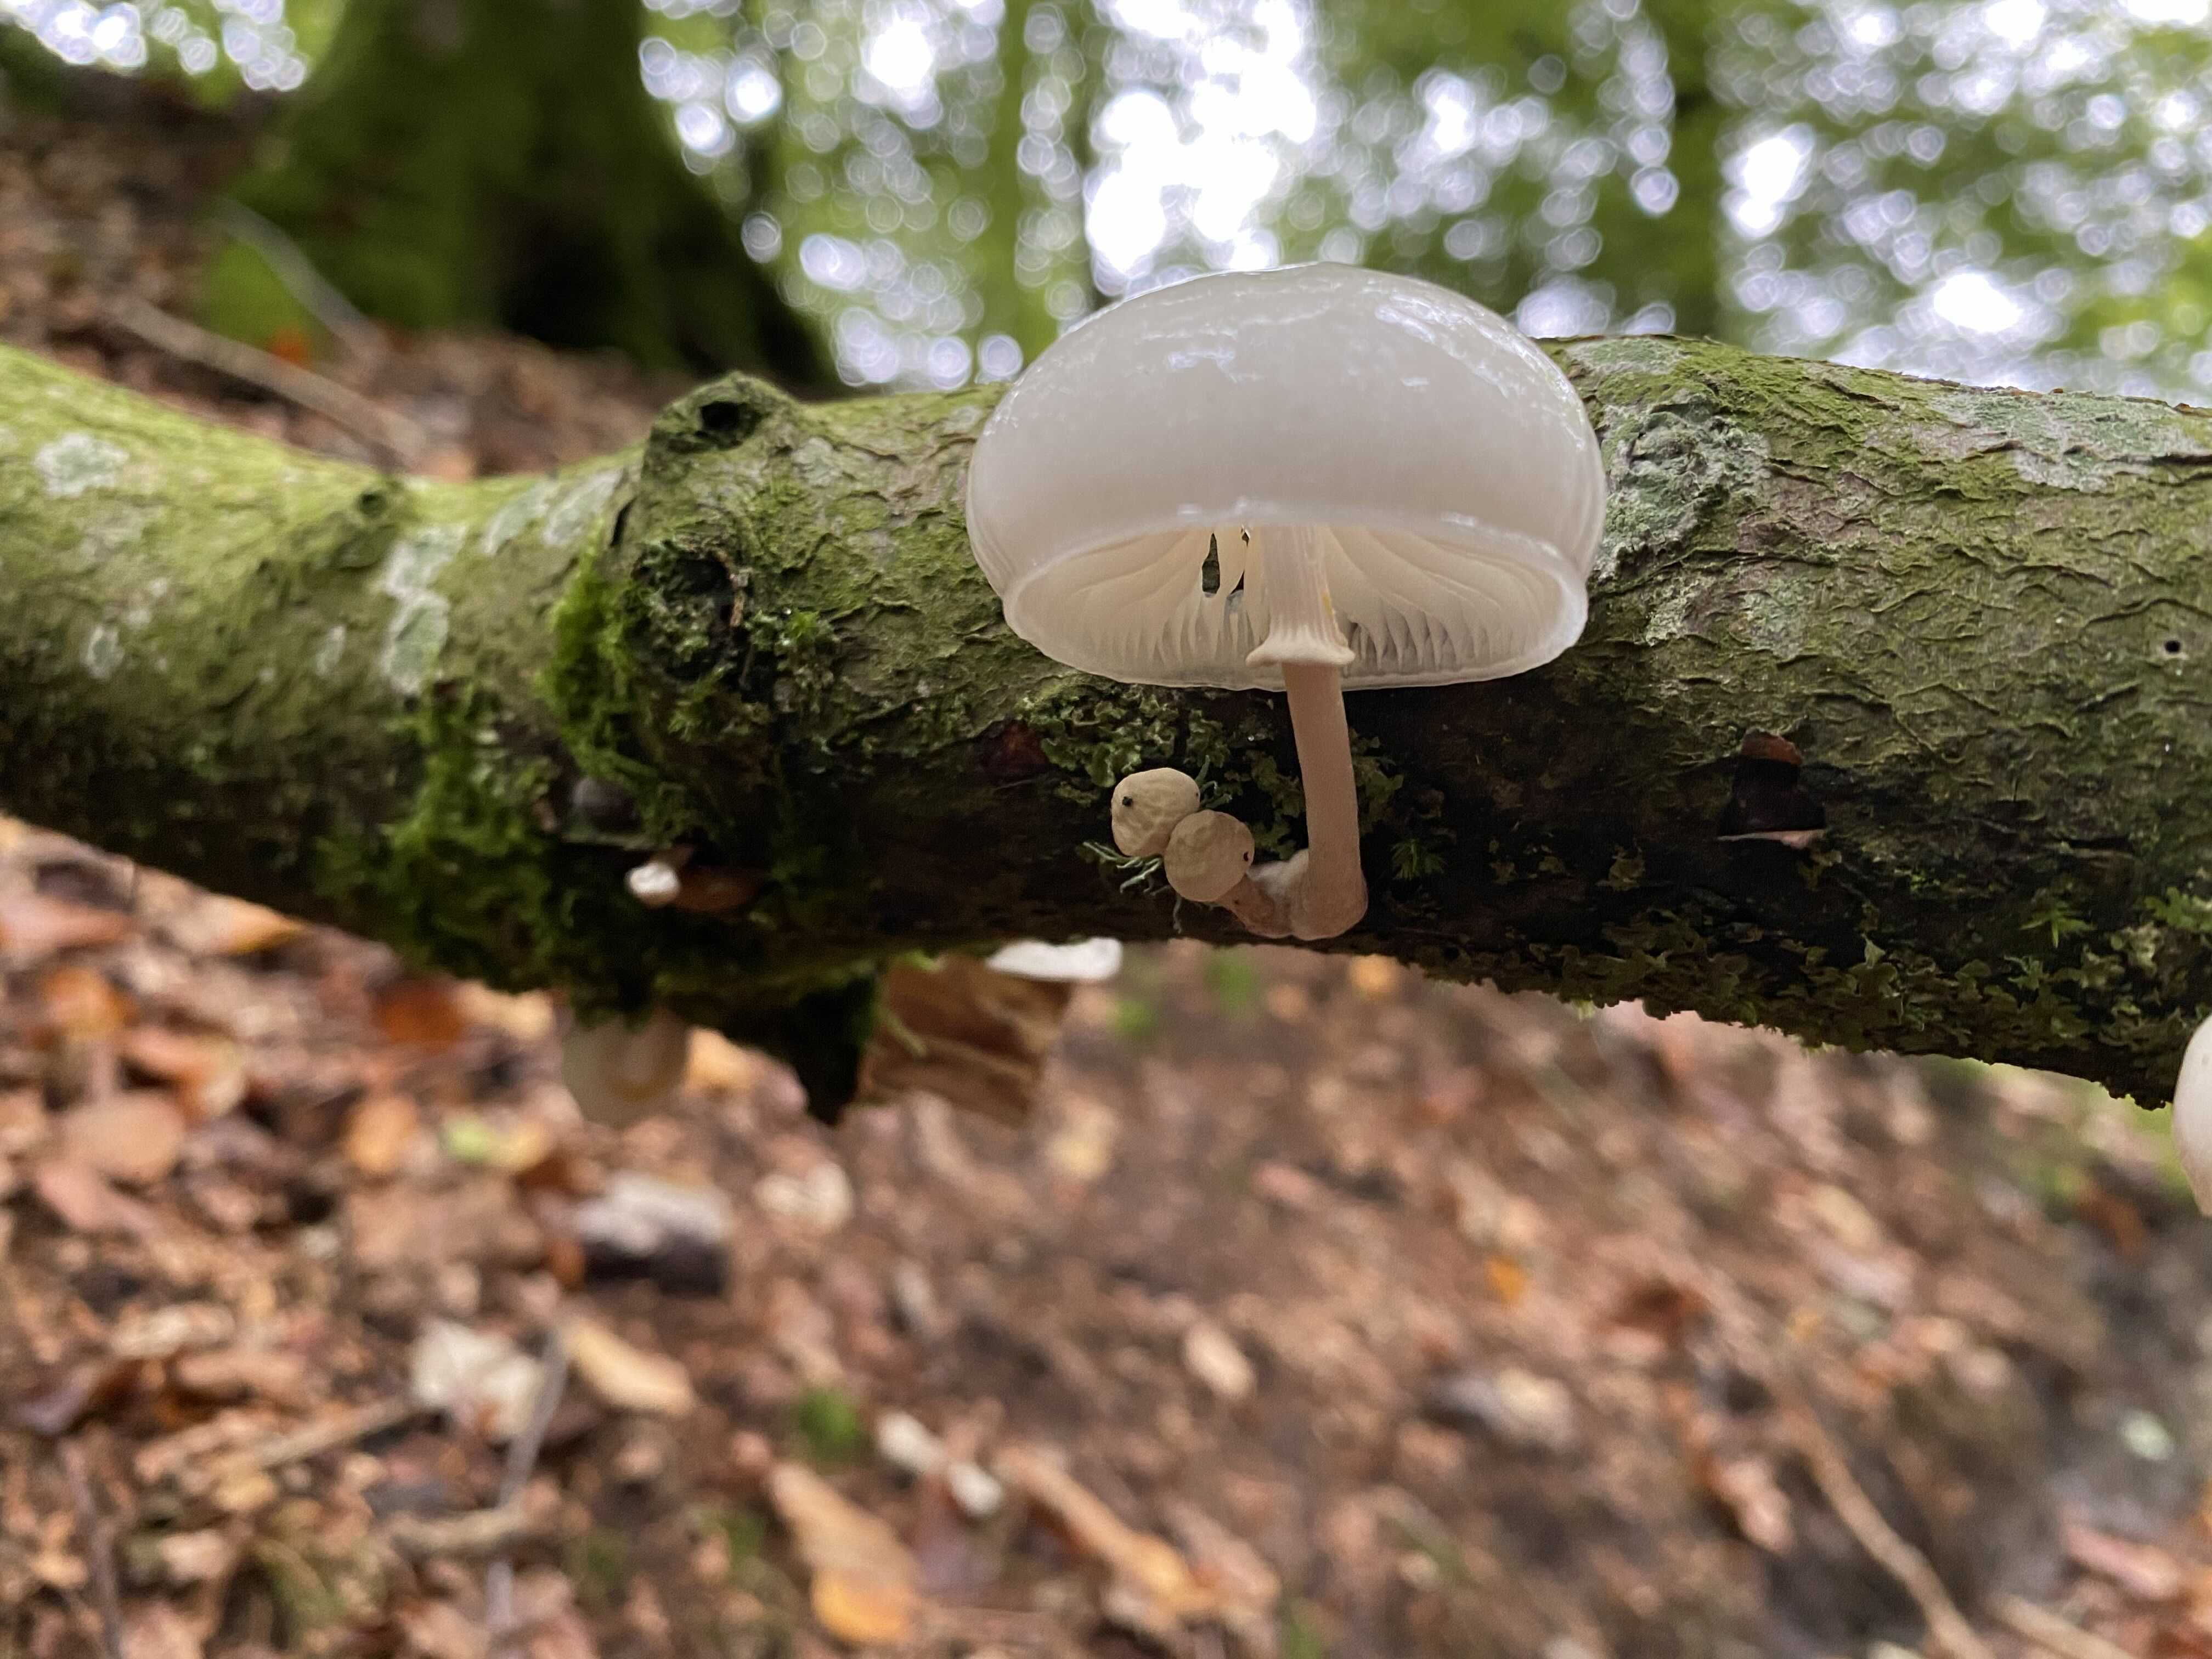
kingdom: Fungi
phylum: Basidiomycota
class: Agaricomycetes
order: Agaricales
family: Physalacriaceae
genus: Mucidula
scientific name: Mucidula mucida
